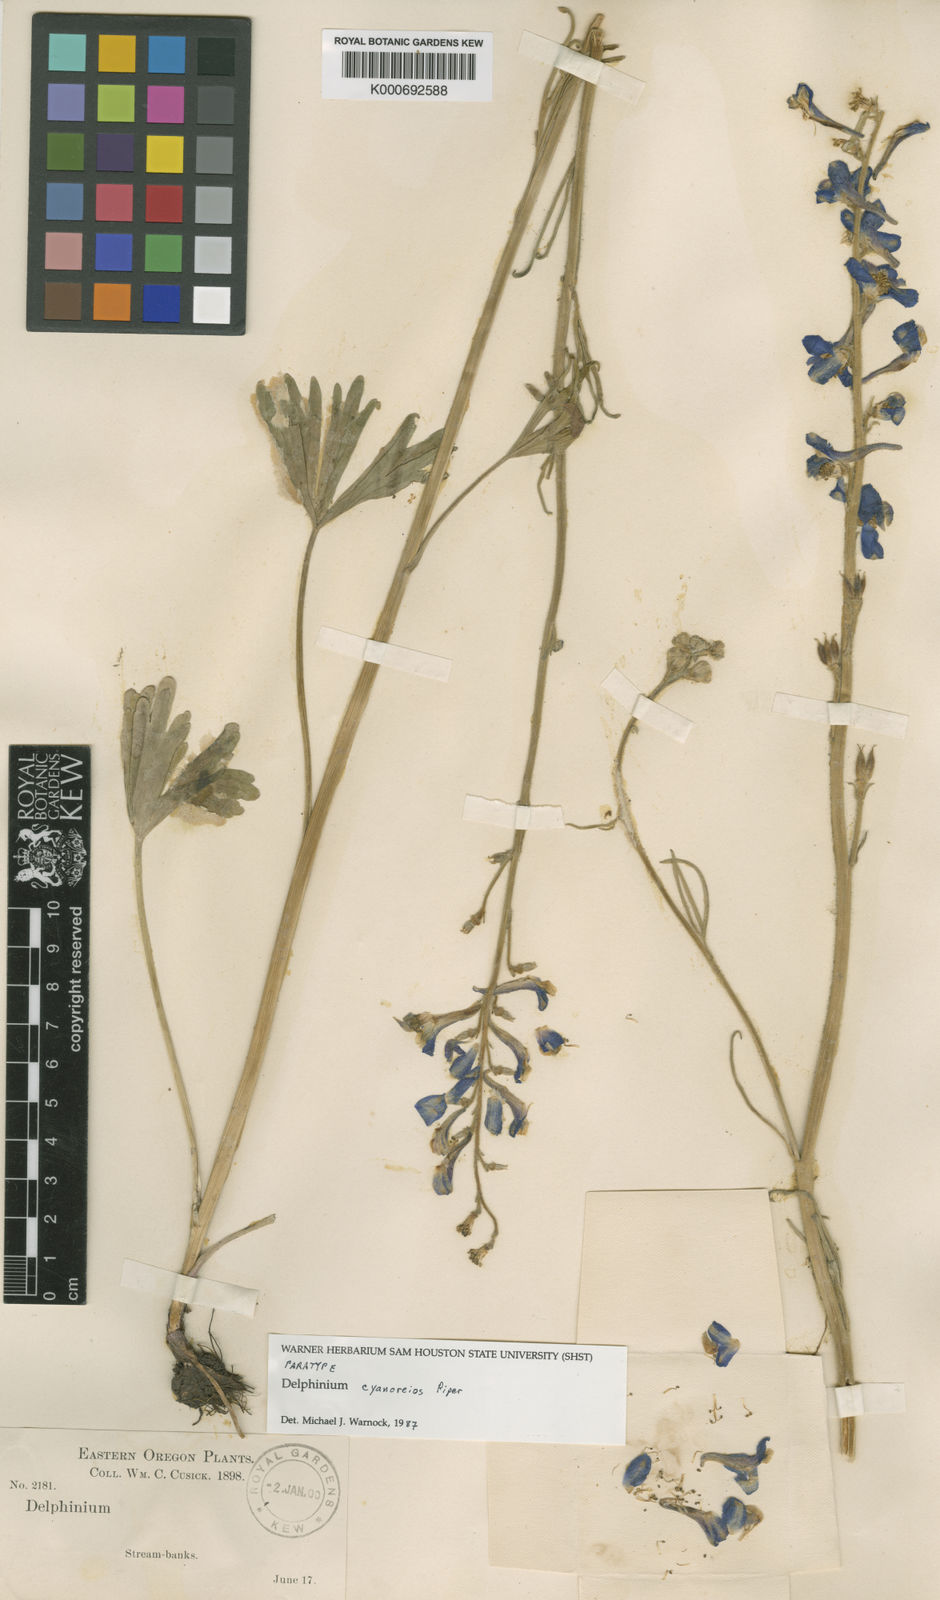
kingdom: Plantae
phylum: Tracheophyta
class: Magnoliopsida
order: Ranunculales
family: Ranunculaceae
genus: Delphinium
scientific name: Delphinium depauperatum
